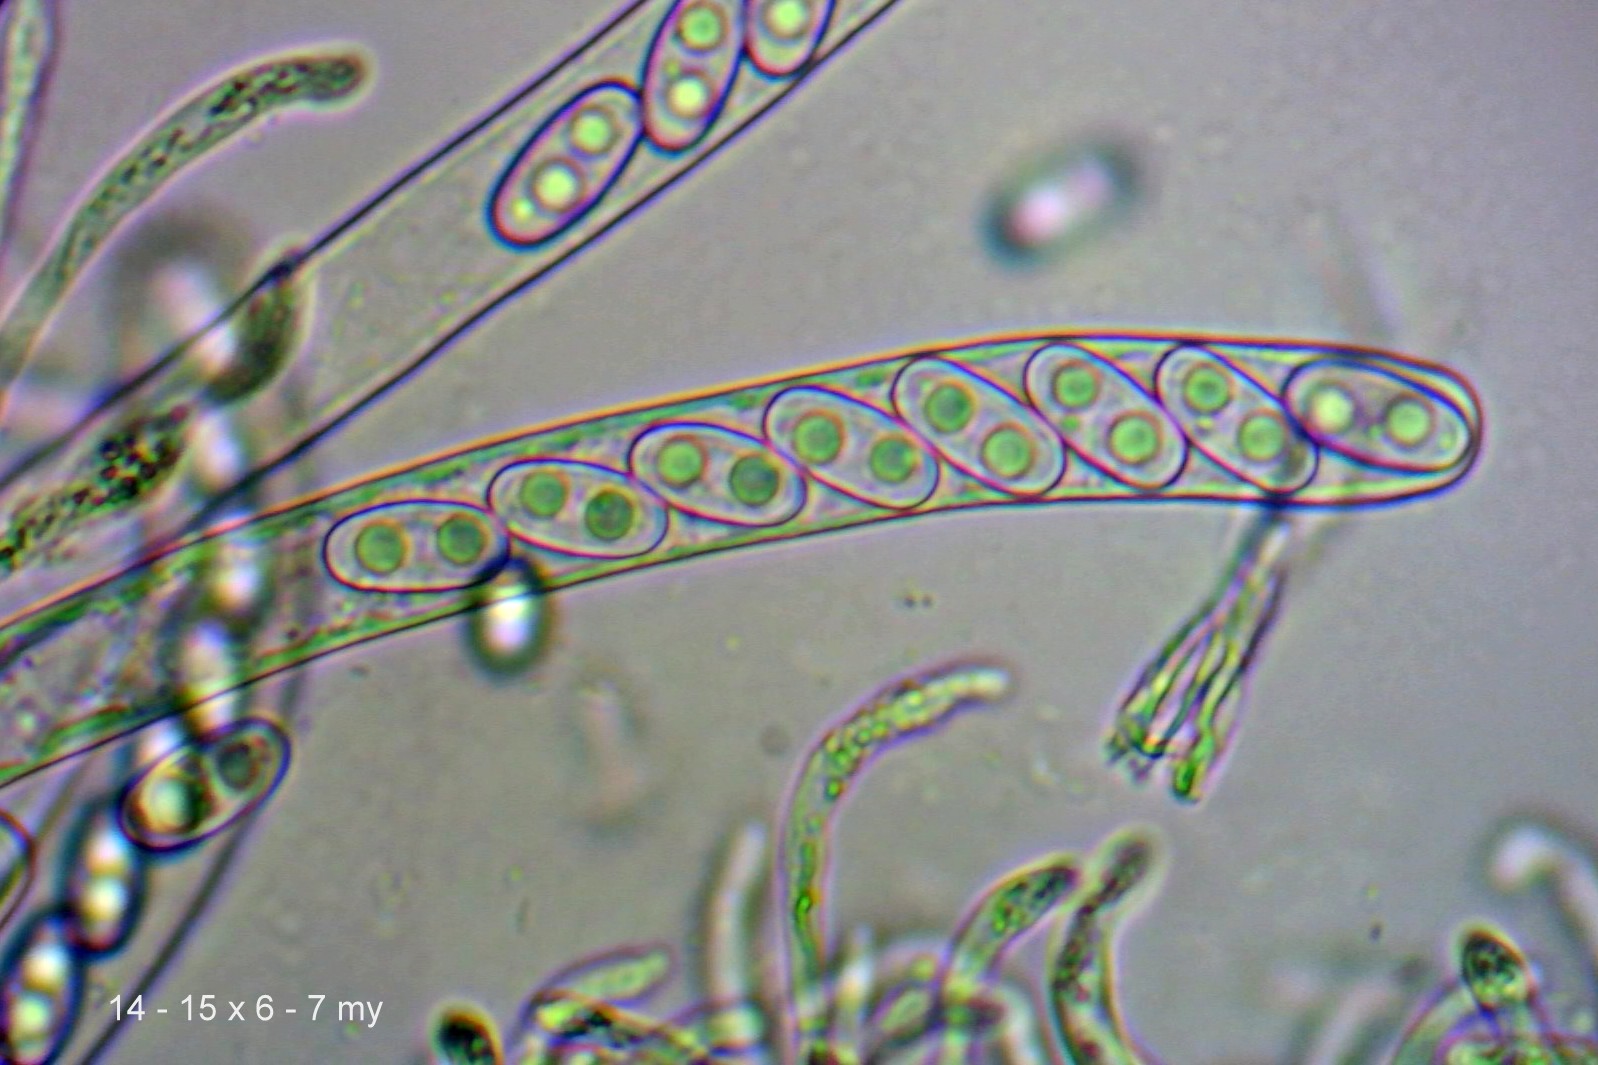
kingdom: Fungi
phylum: Ascomycota
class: Pezizomycetes
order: Pezizales
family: Otideaceae
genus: Otidea
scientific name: Otidea
